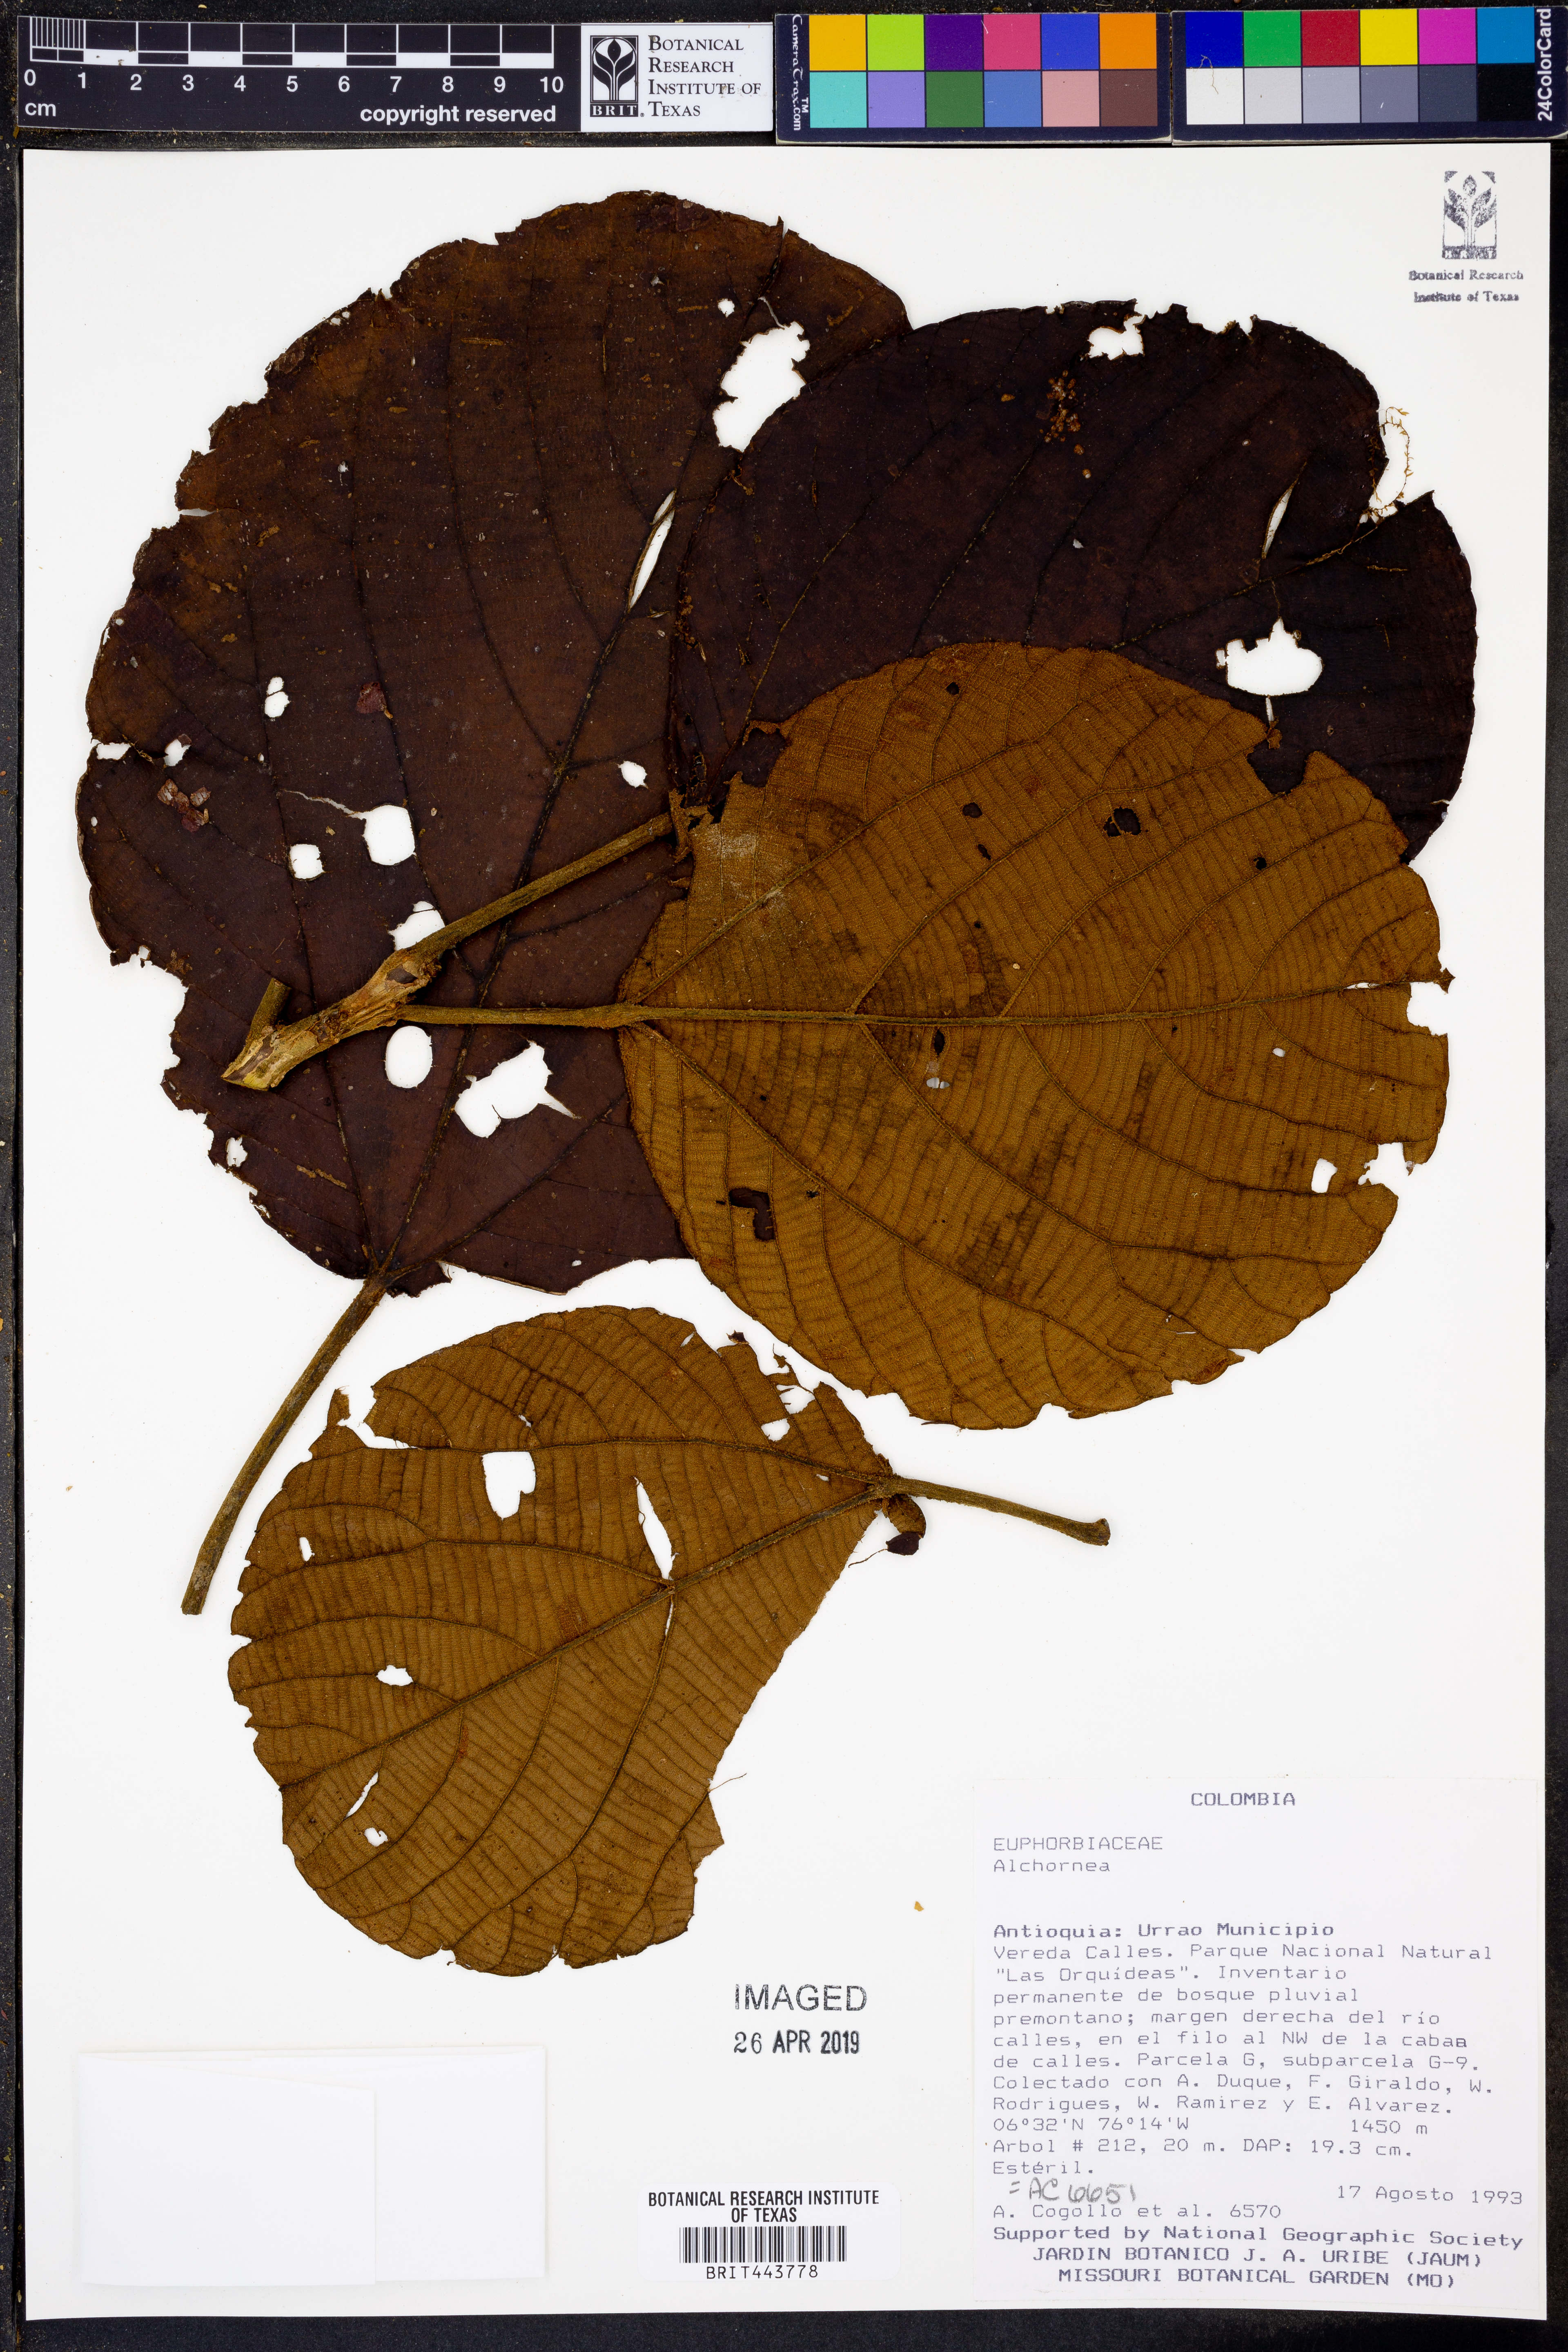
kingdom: Plantae
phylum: Tracheophyta
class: Magnoliopsida
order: Malpighiales
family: Euphorbiaceae
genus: Alchornea
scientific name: Alchornea
